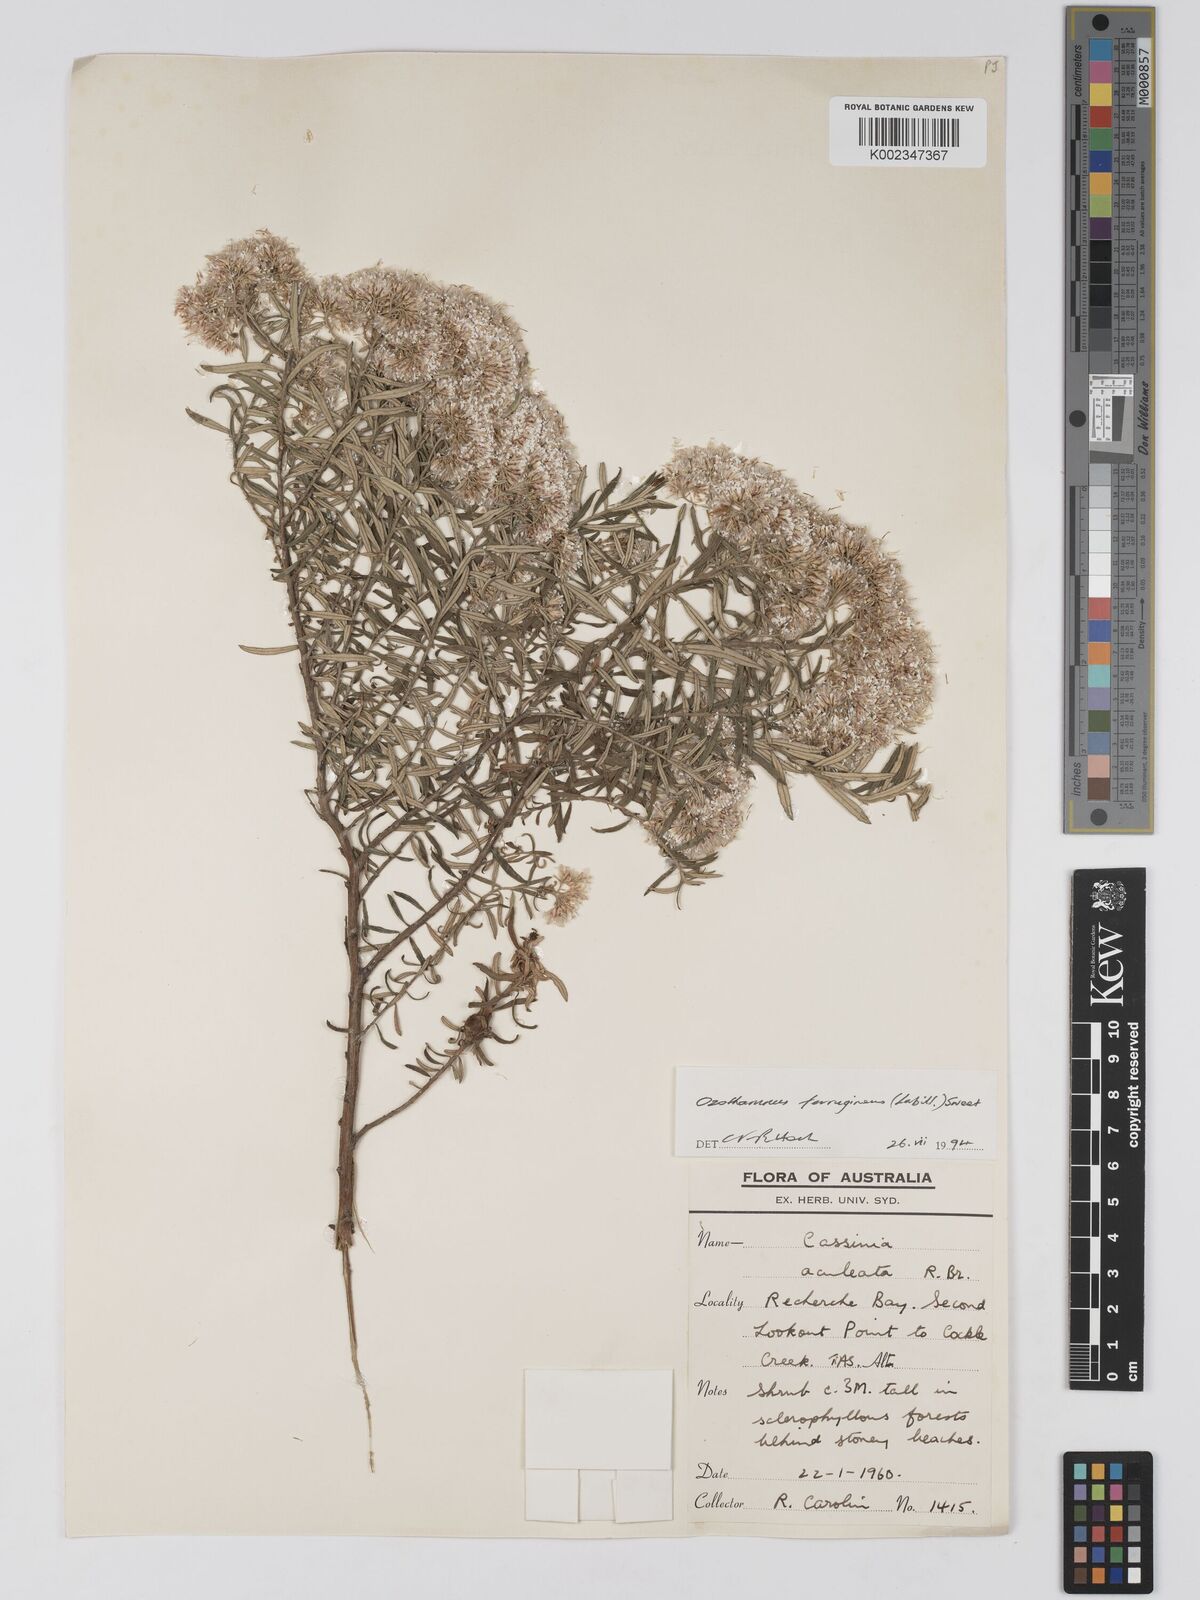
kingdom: Plantae
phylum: Tracheophyta
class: Magnoliopsida
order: Asterales
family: Asteraceae
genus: Ozothamnus
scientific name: Ozothamnus ferrugineus
